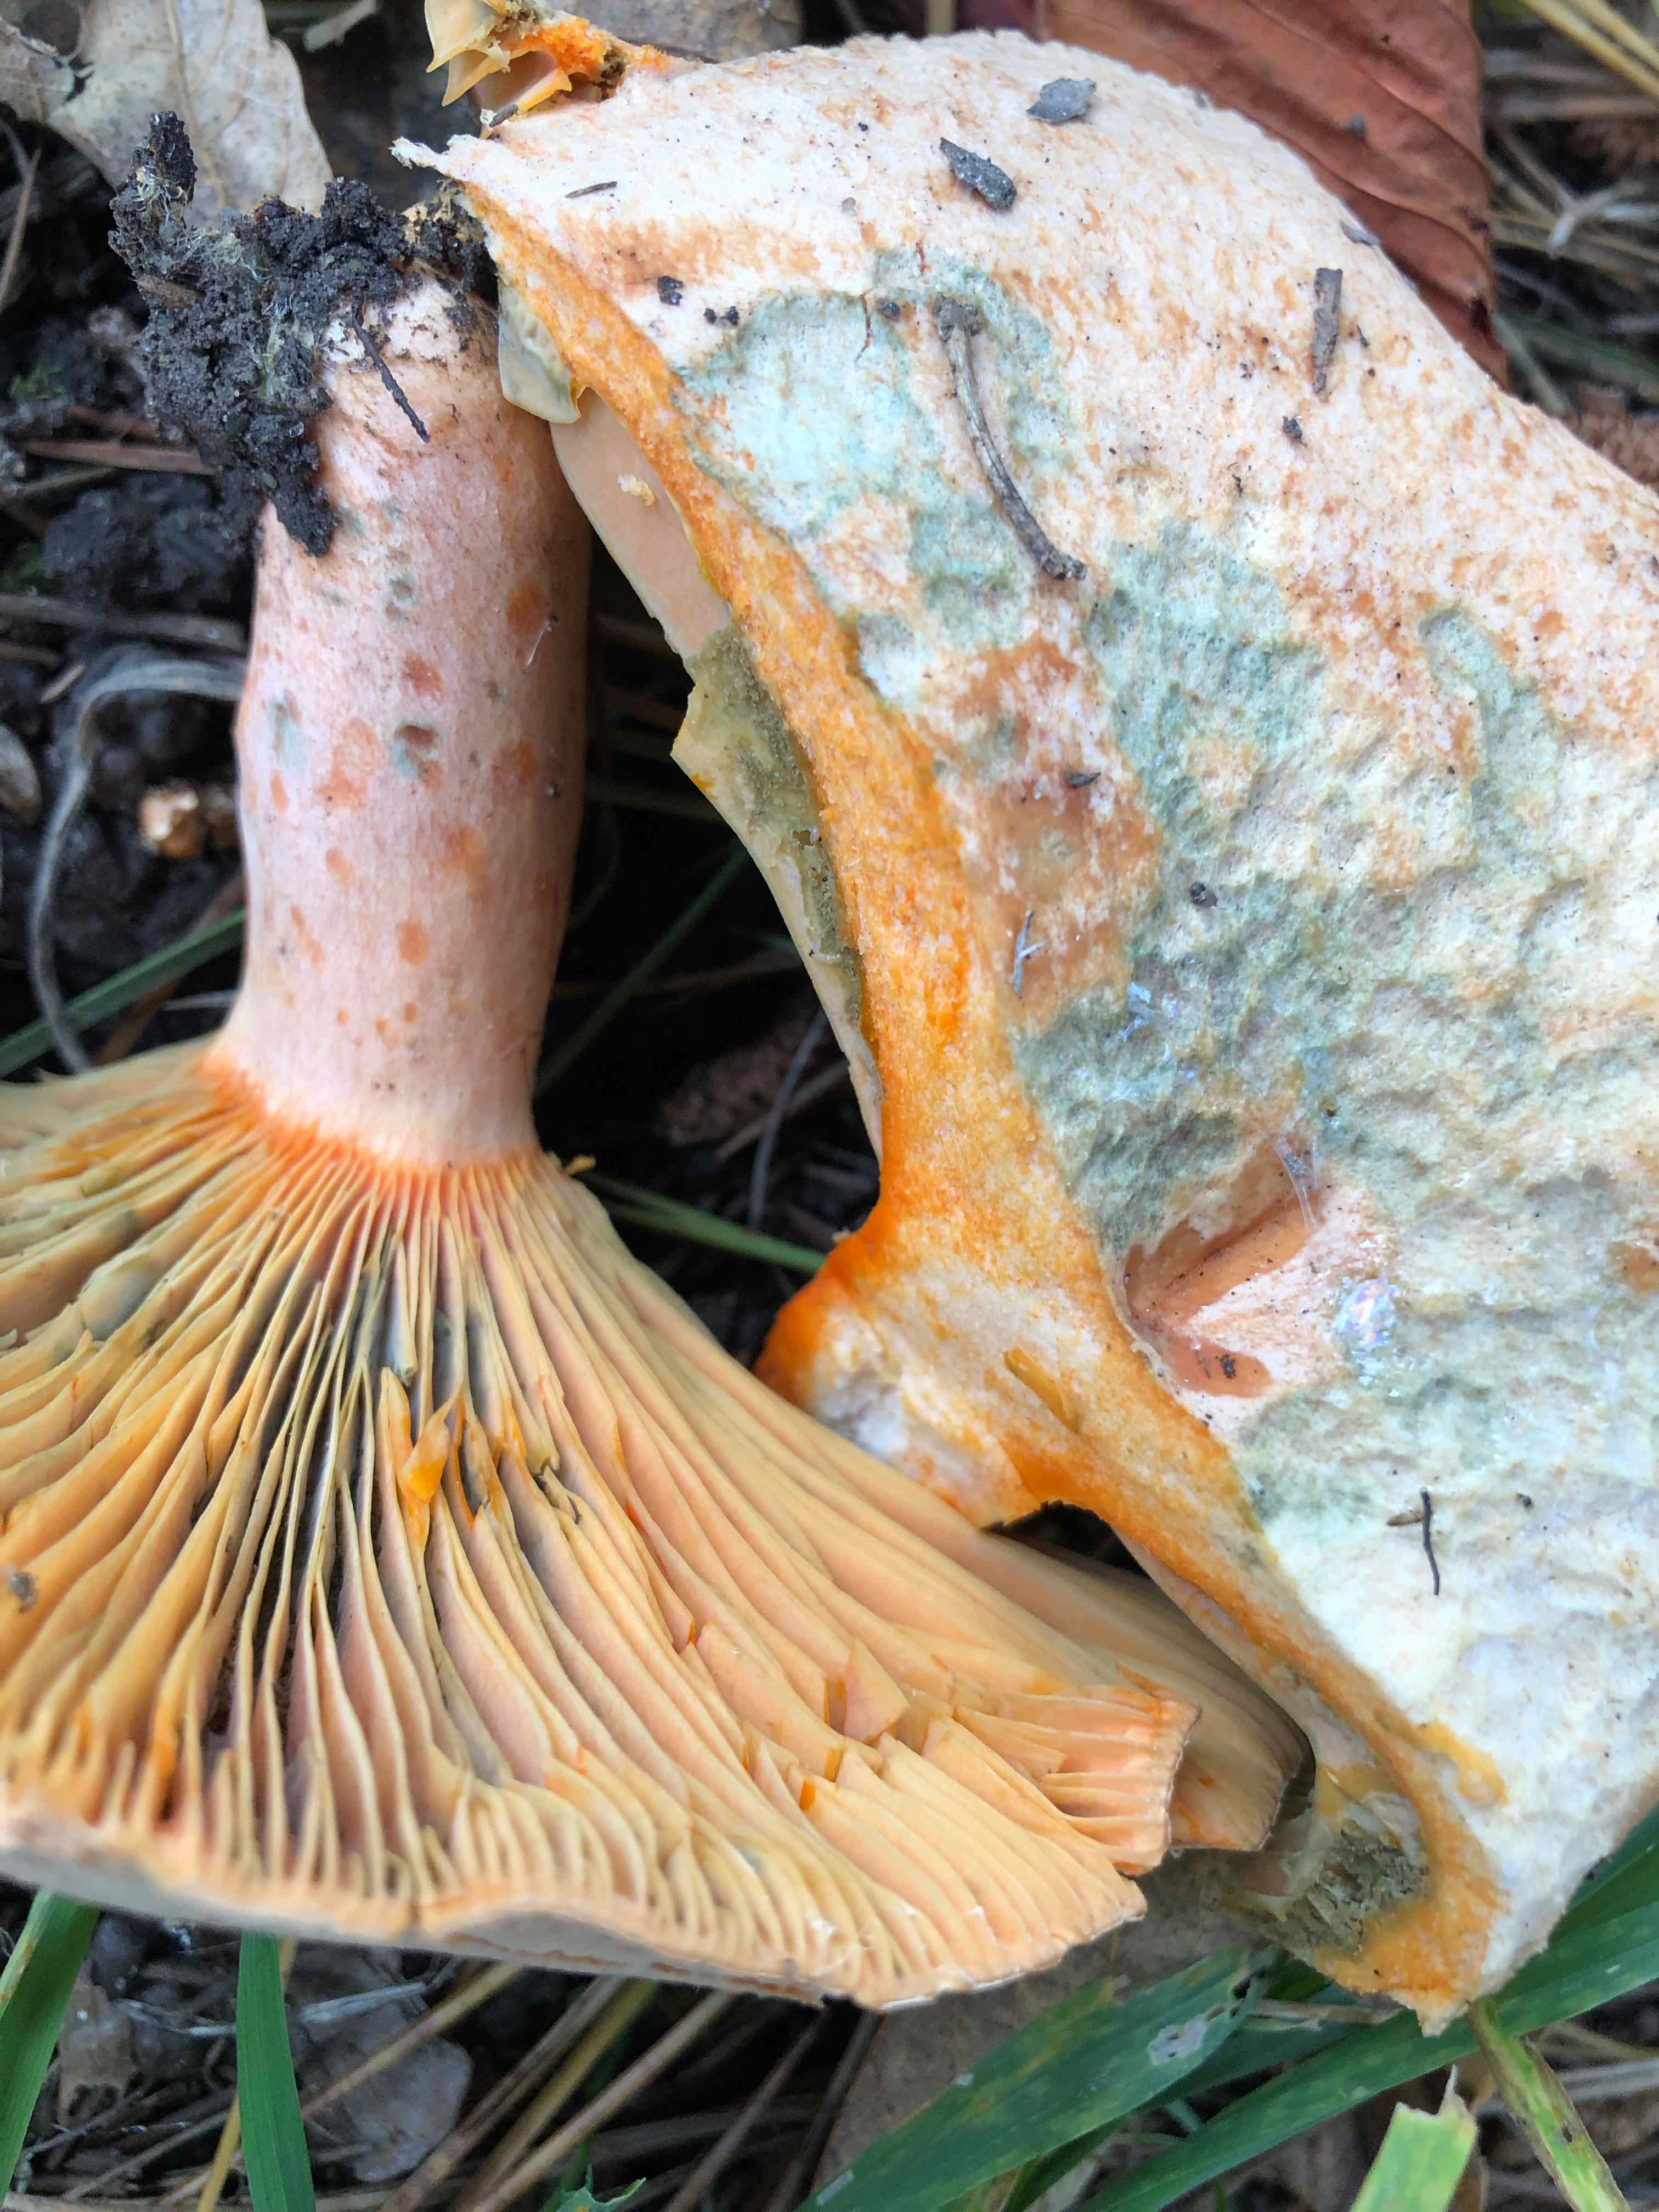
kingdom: Fungi
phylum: Basidiomycota
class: Agaricomycetes
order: Russulales
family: Russulaceae
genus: Lactarius
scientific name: Lactarius deliciosus
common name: velsmagende mælkehat
